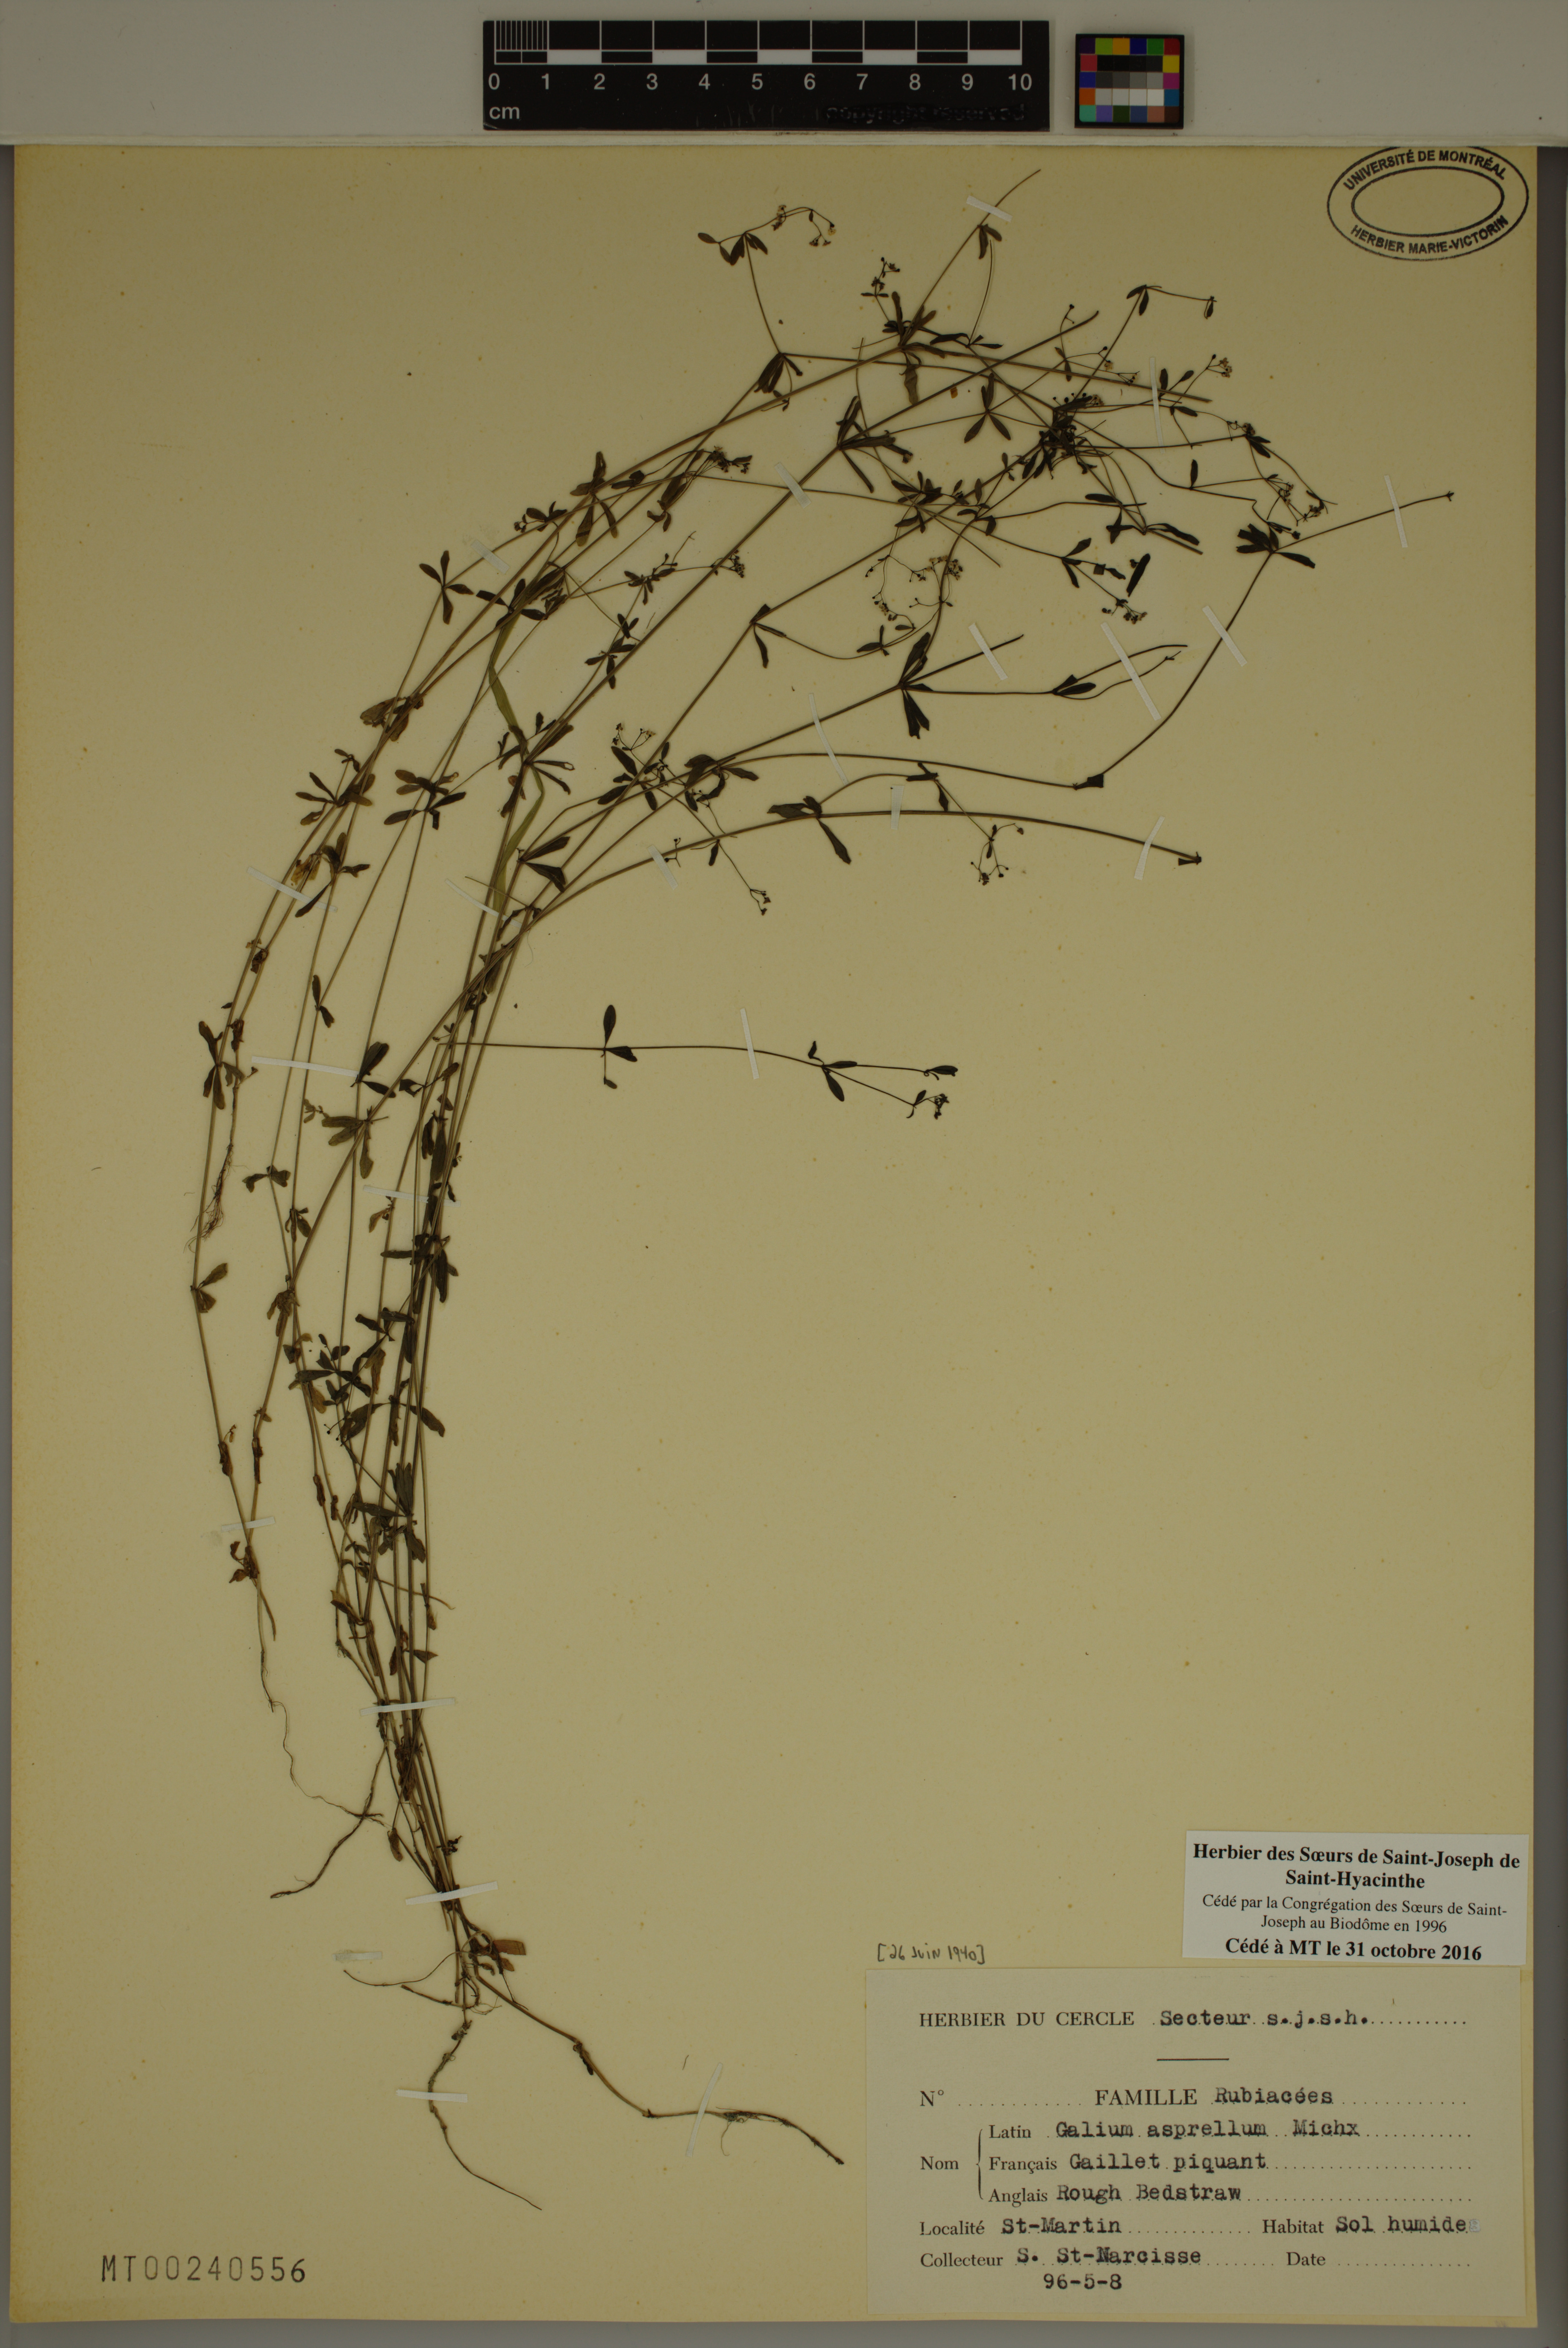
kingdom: Plantae
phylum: Tracheophyta
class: Magnoliopsida
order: Gentianales
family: Rubiaceae
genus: Galium
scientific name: Galium asprellum
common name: Rough bedstraw
